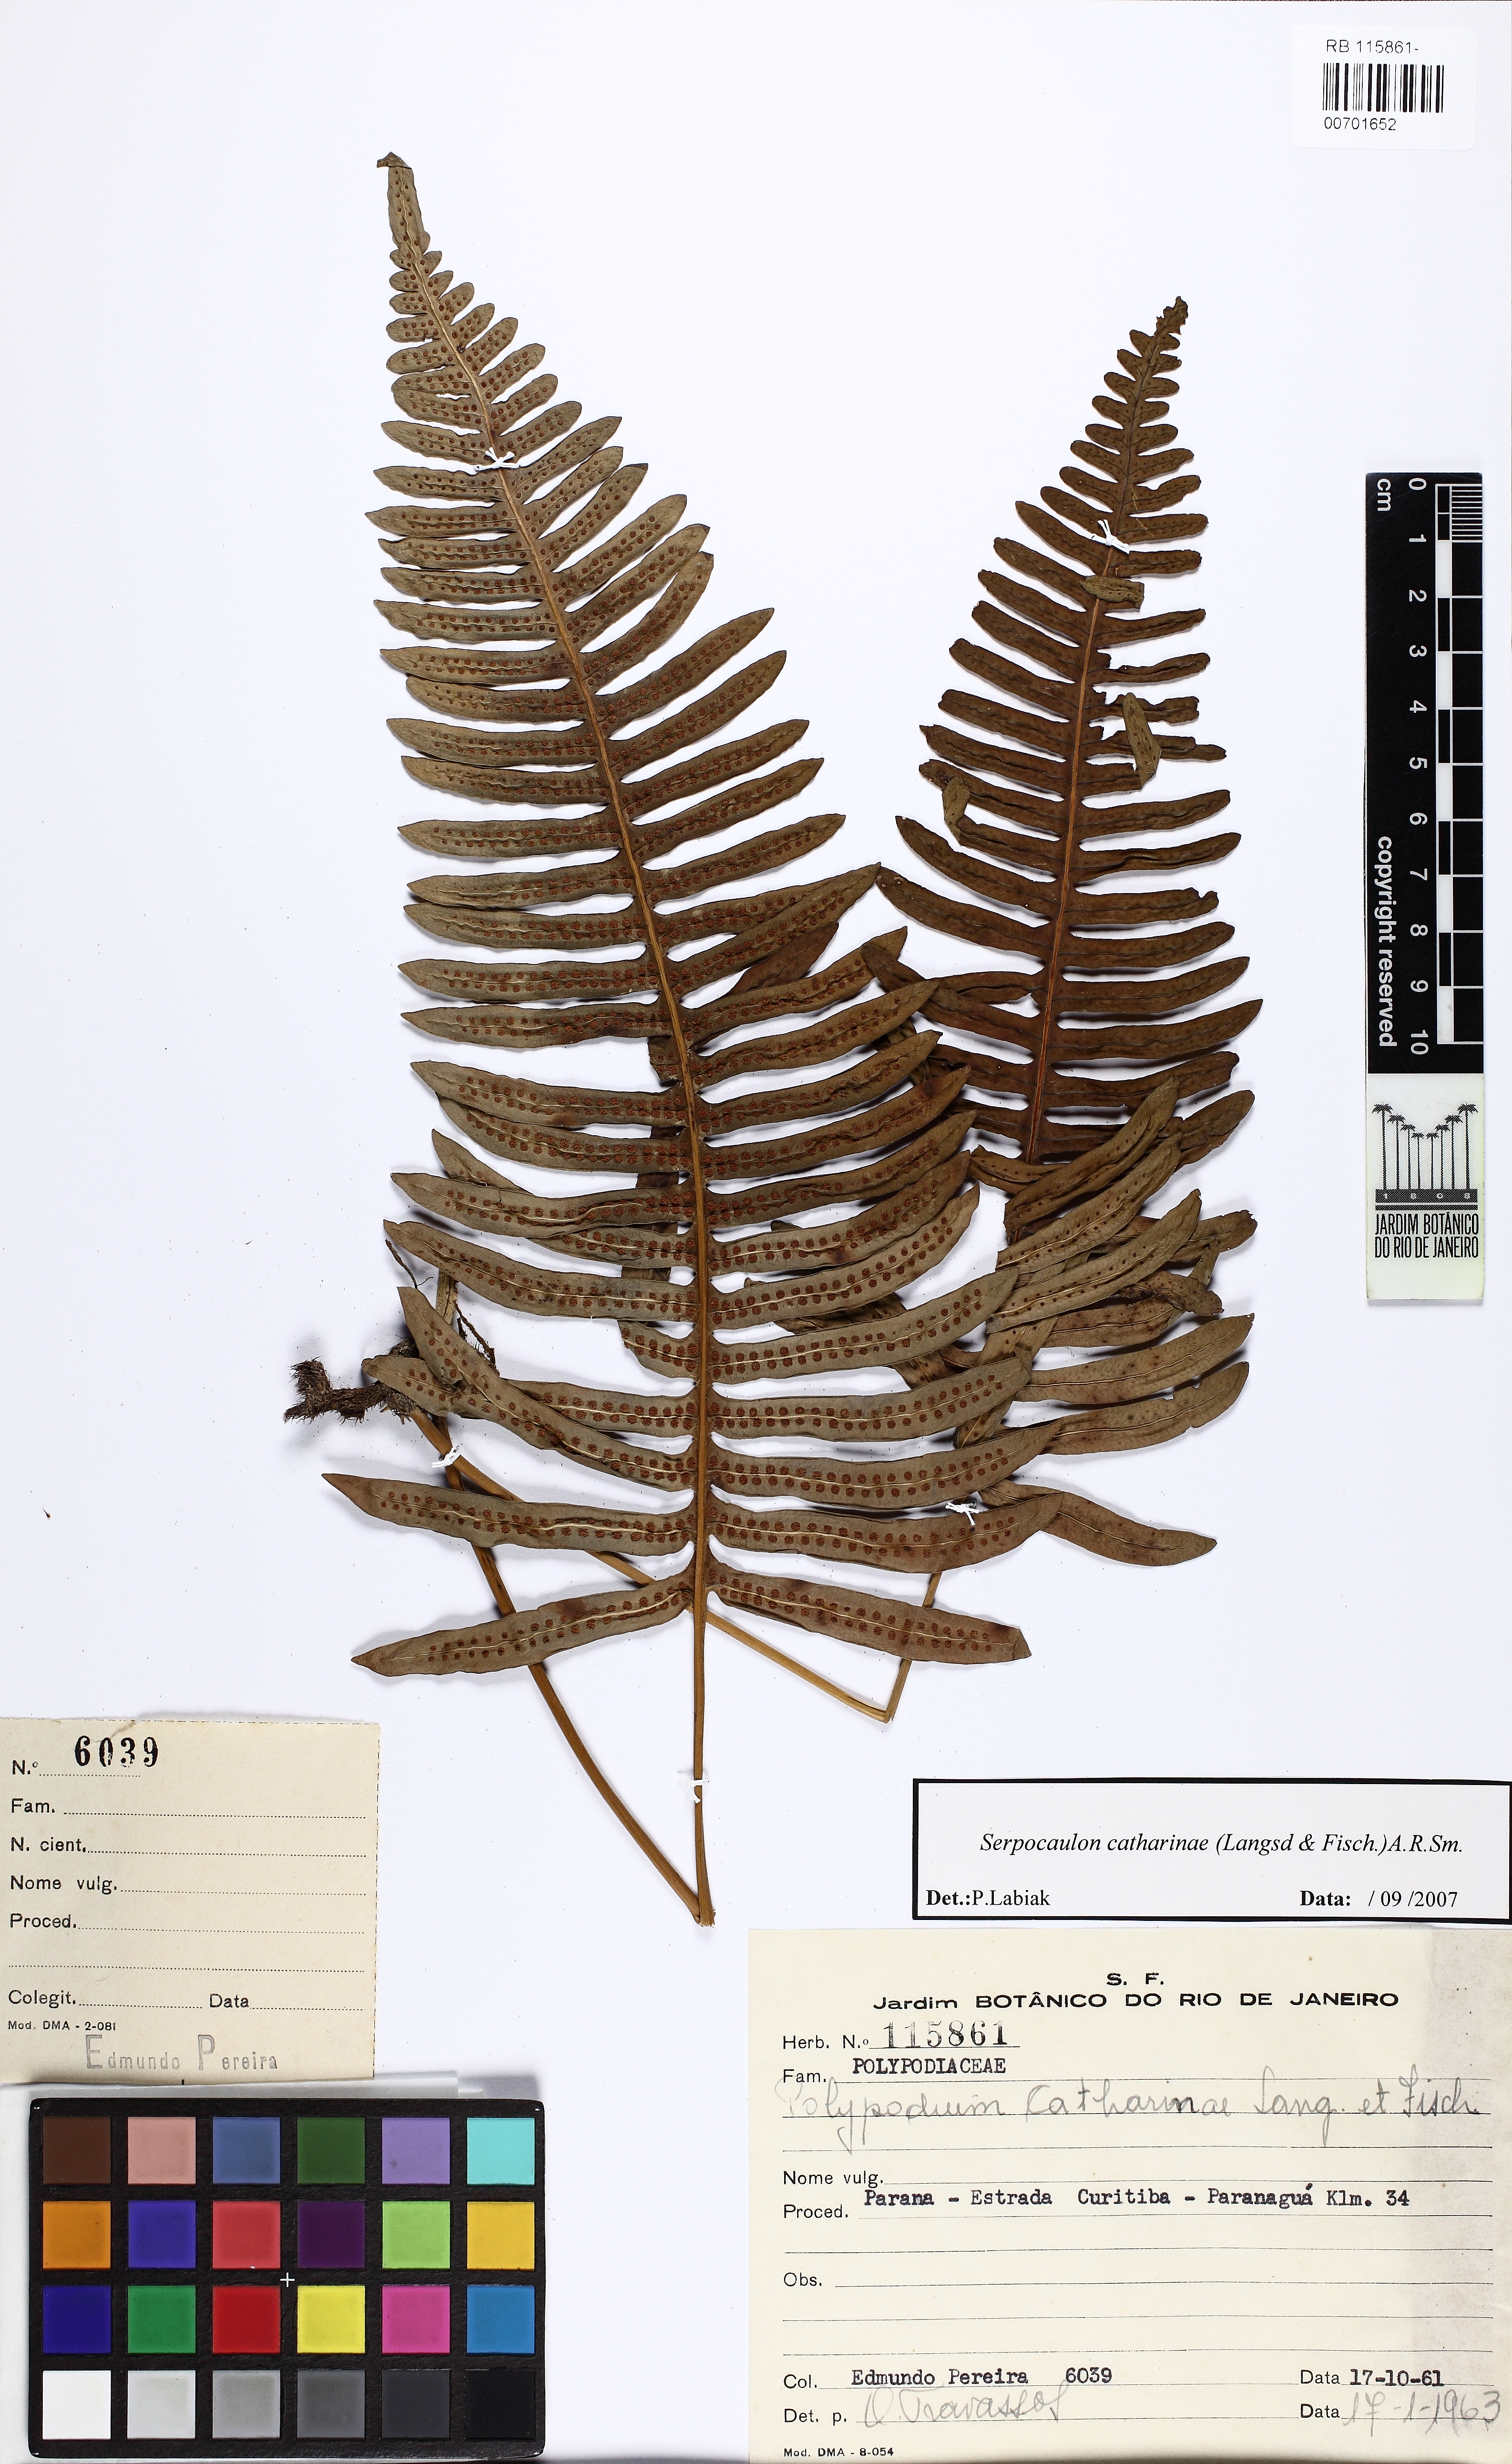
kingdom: Plantae
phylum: Tracheophyta
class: Polypodiopsida
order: Polypodiales
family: Polypodiaceae
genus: Serpocaulon
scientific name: Serpocaulon catharinae
